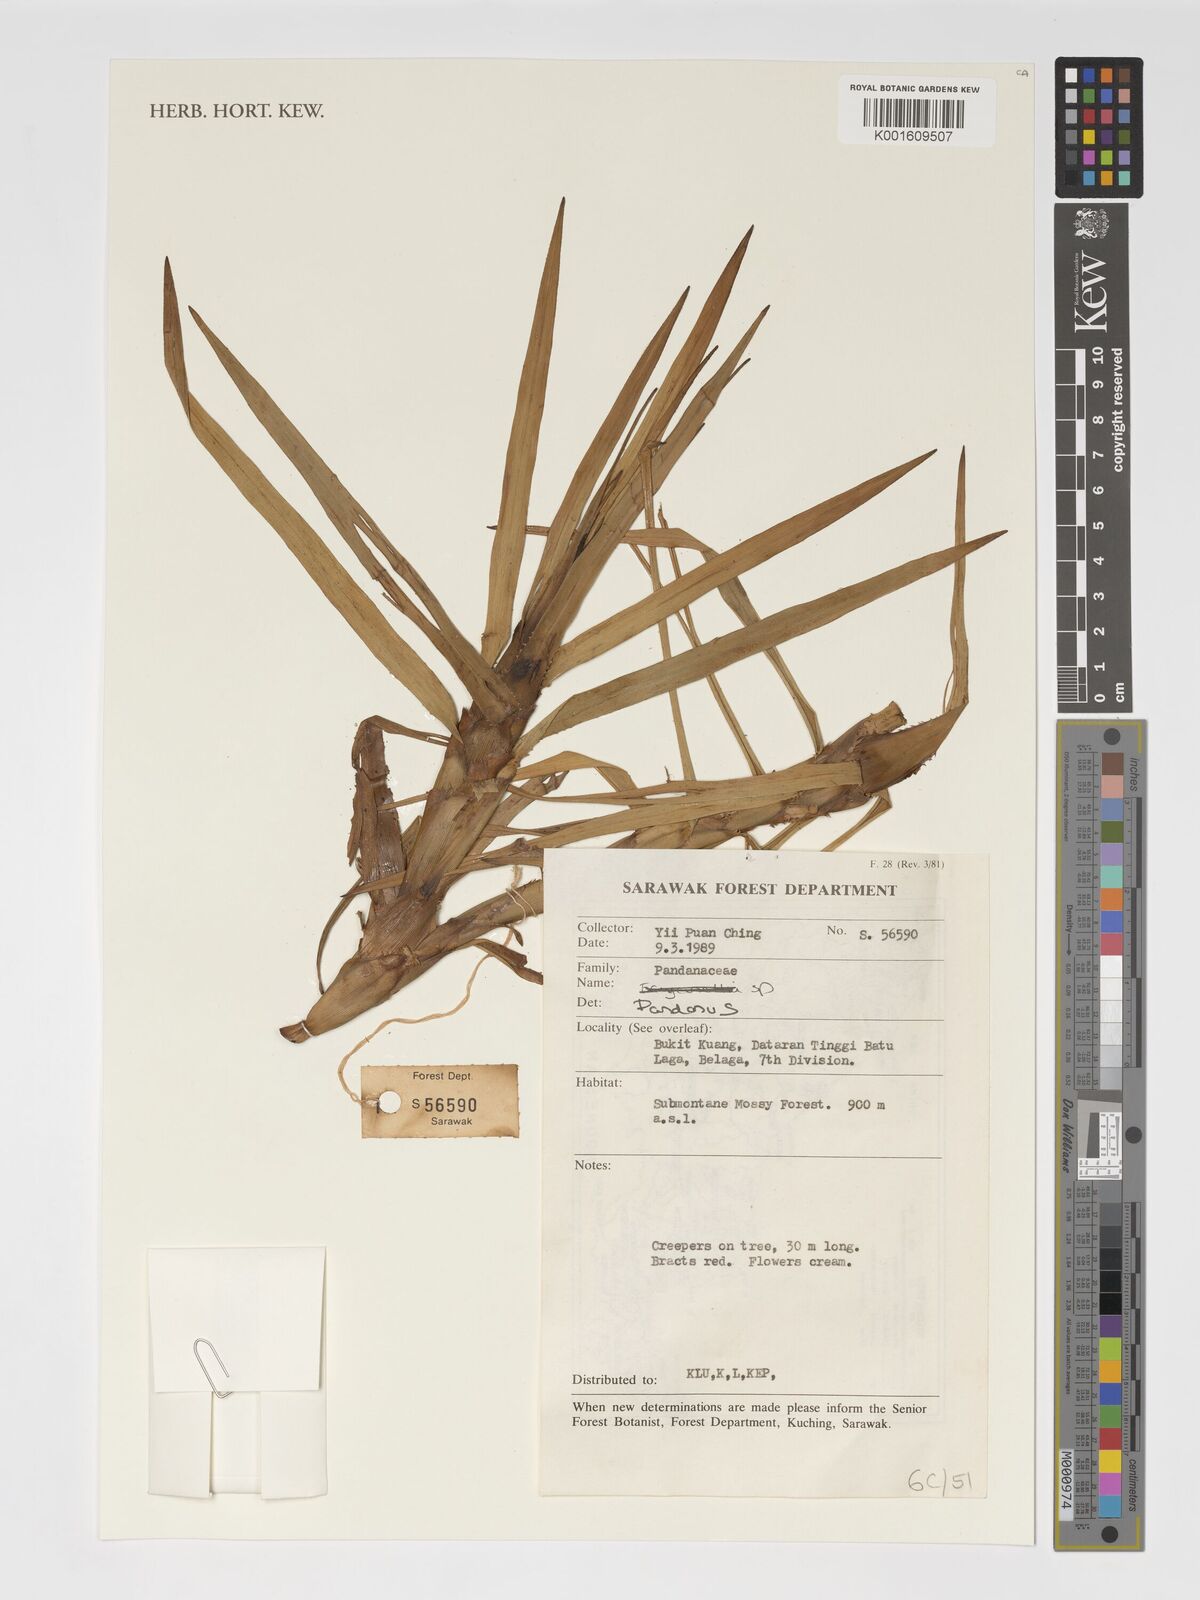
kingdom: Plantae
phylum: Tracheophyta
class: Liliopsida
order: Pandanales
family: Pandanaceae
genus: Pandanus
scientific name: Pandanus
